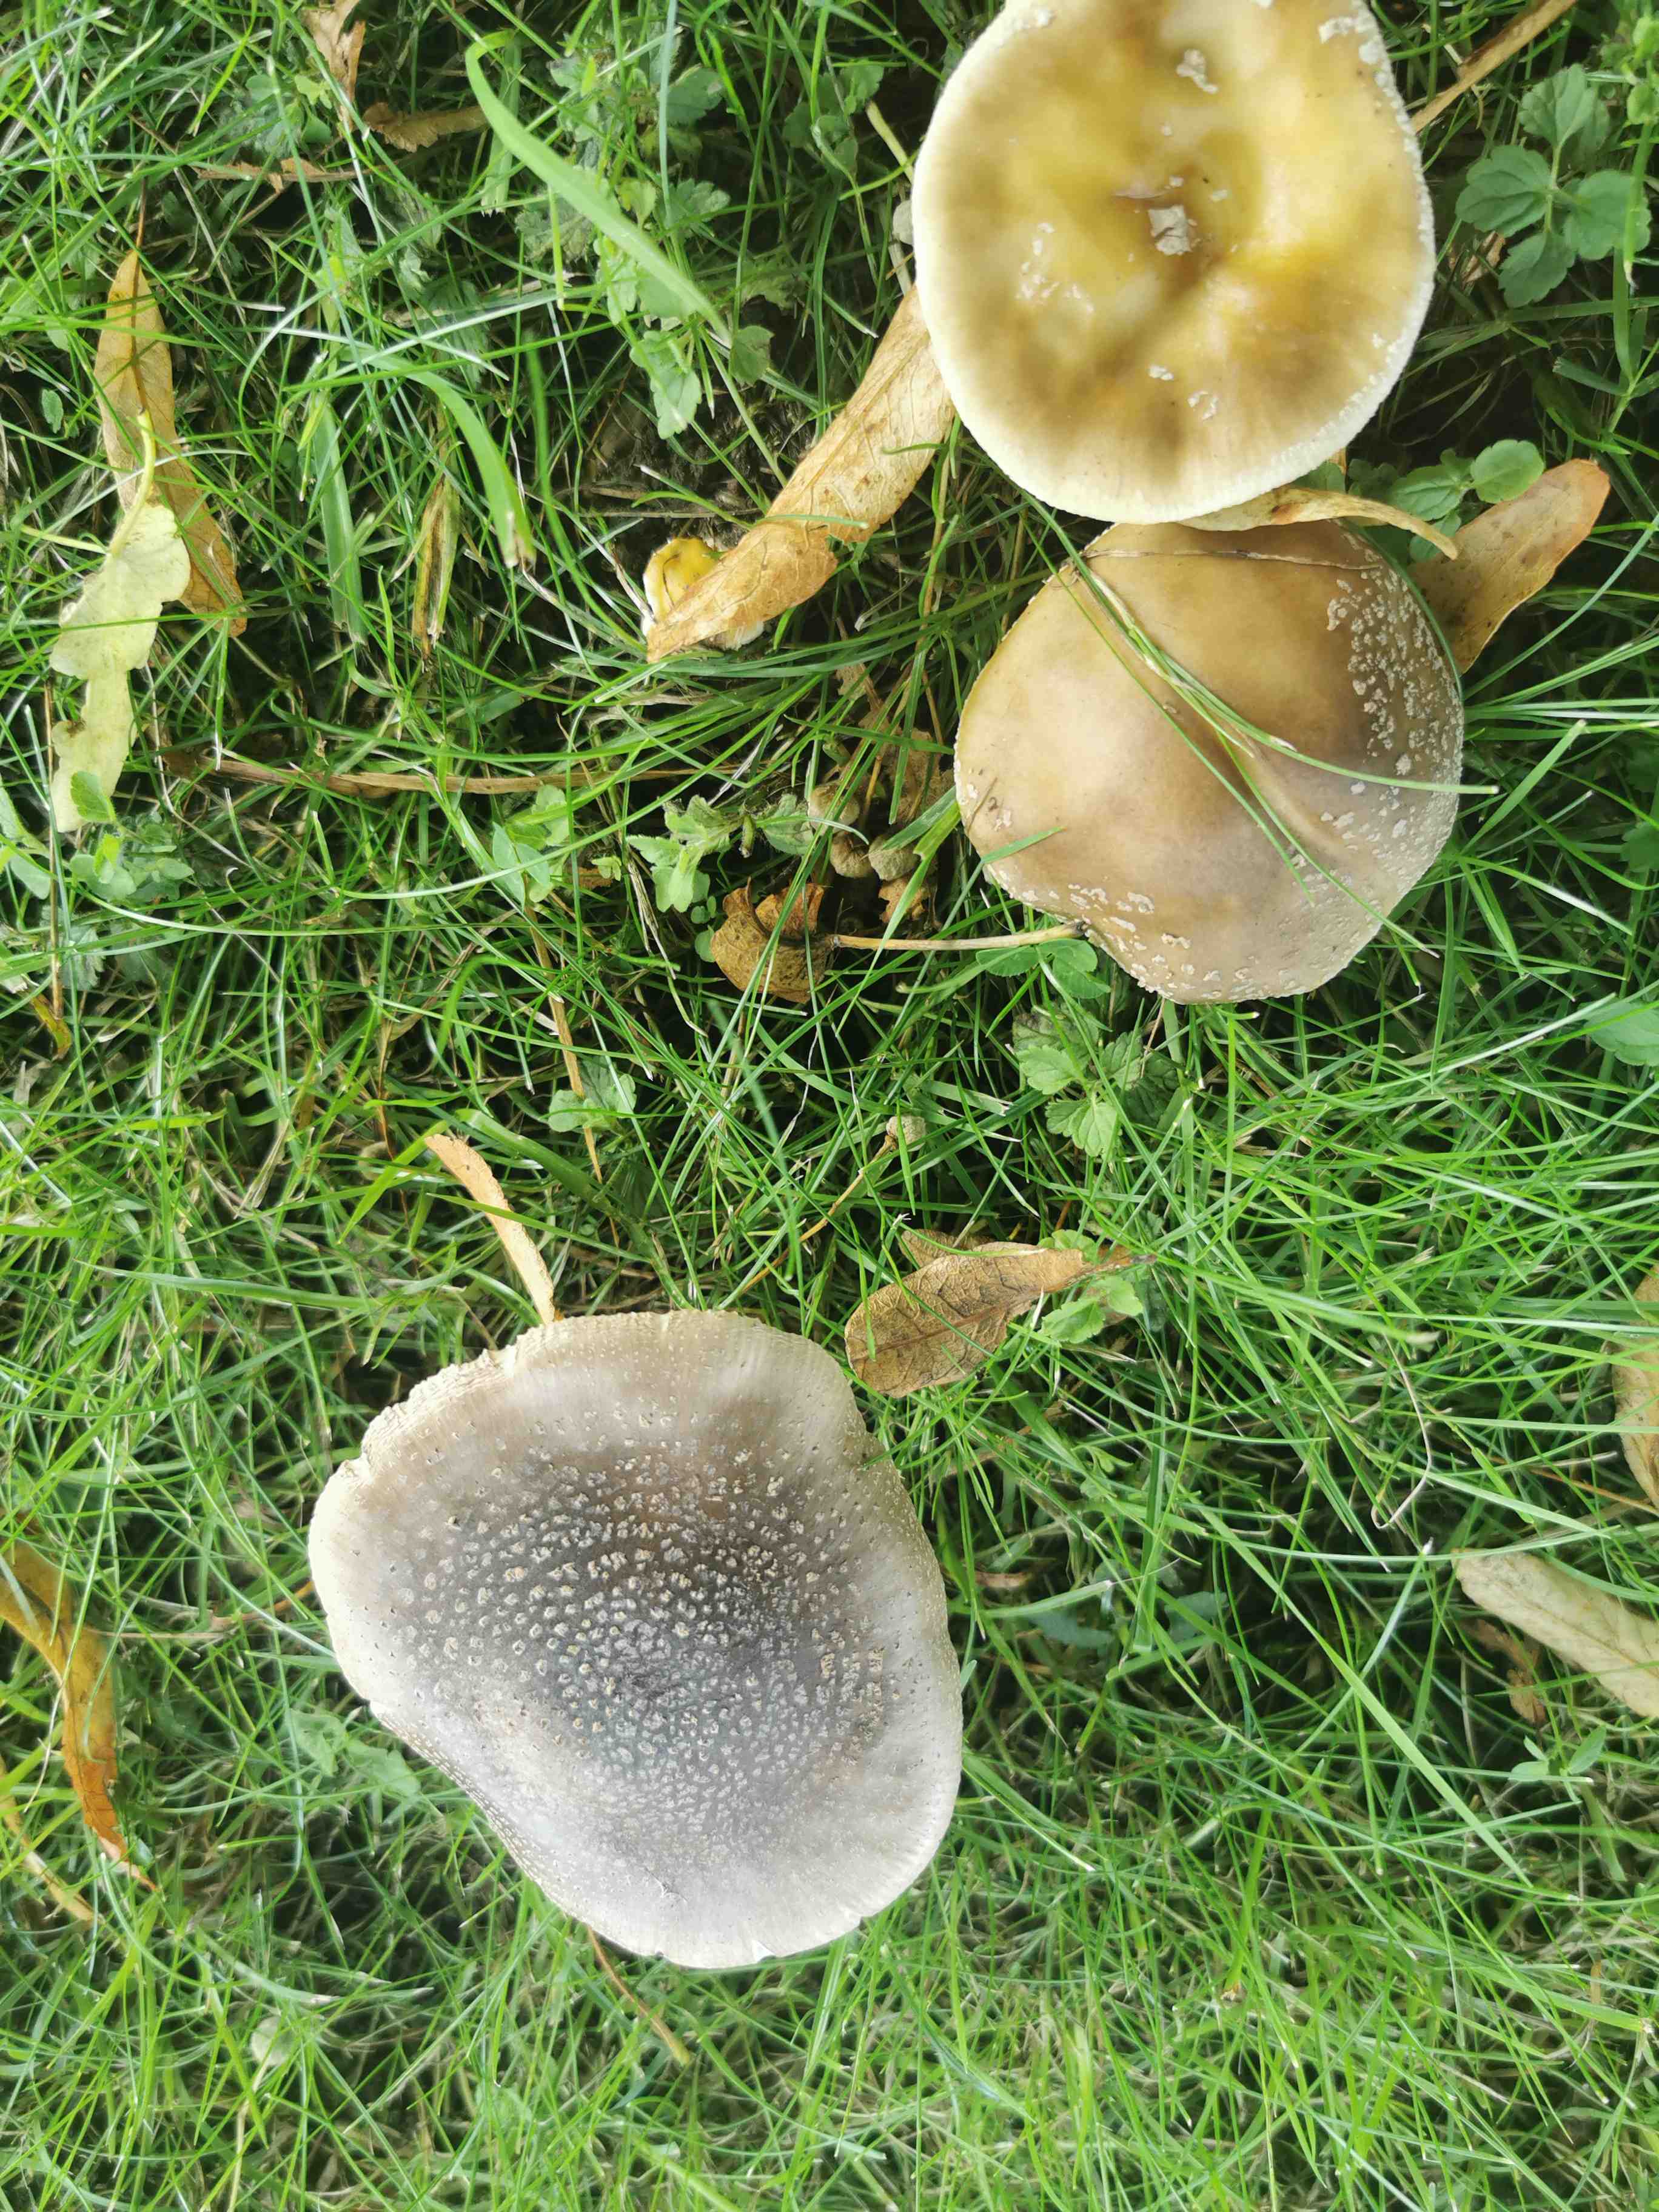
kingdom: Fungi
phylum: Basidiomycota
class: Agaricomycetes
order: Agaricales
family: Amanitaceae
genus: Amanita
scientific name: Amanita rubescens
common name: rødmende fluesvamp
